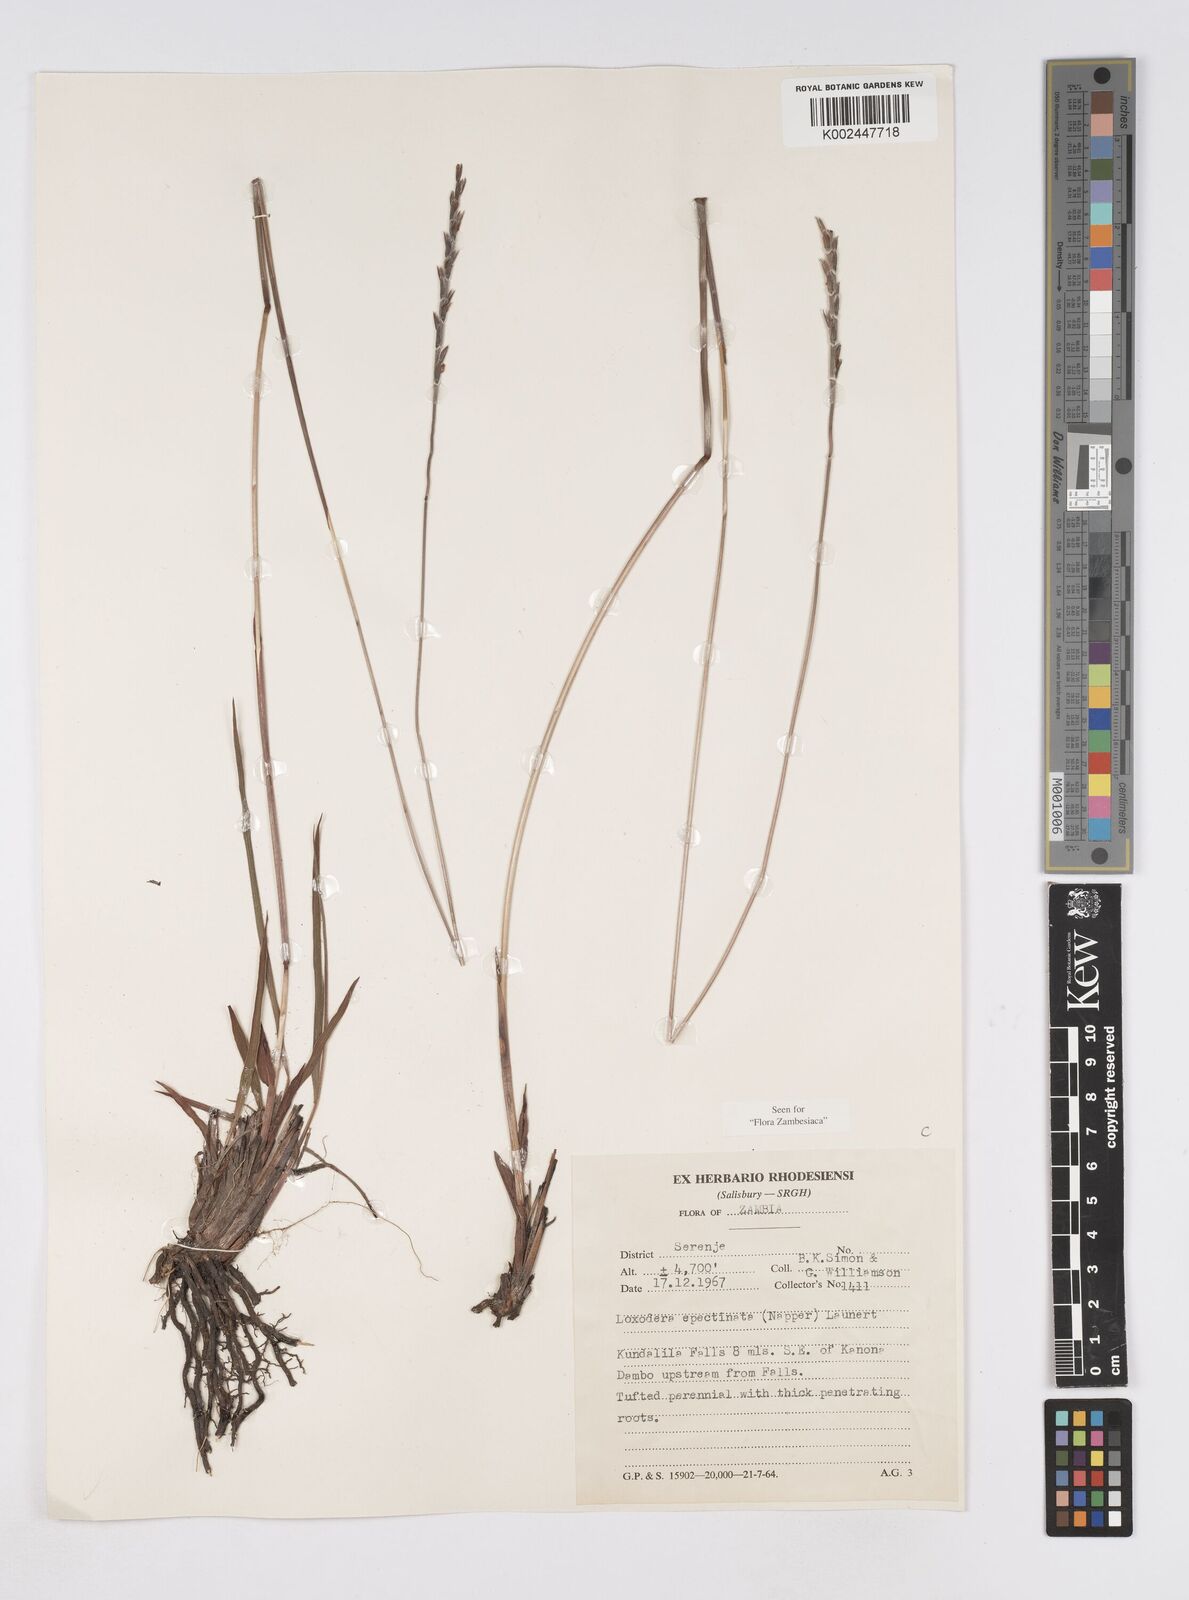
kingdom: Plantae
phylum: Tracheophyta
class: Liliopsida
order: Poales
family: Poaceae
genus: Loxodera
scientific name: Loxodera caespitosa
